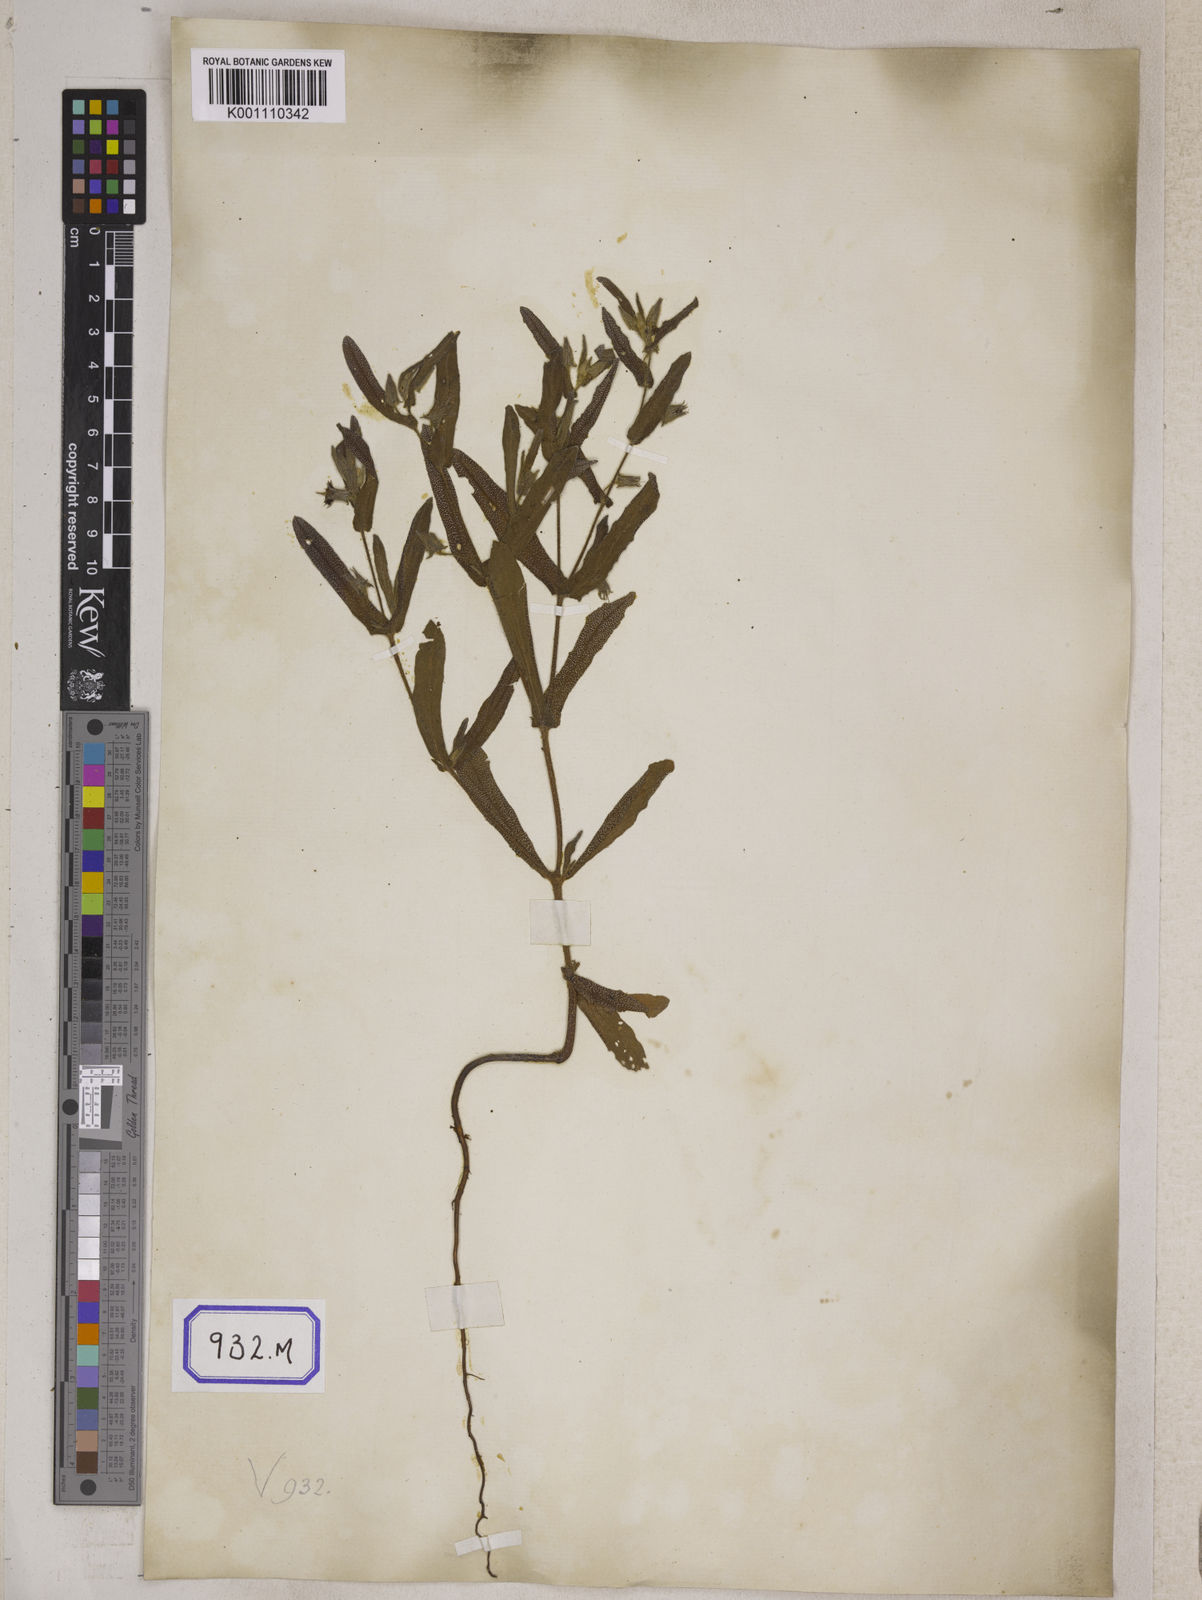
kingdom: Plantae
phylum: Tracheophyta
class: Magnoliopsida
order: Boraginales
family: Boraginaceae
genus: Trichodesma
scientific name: Trichodesma
